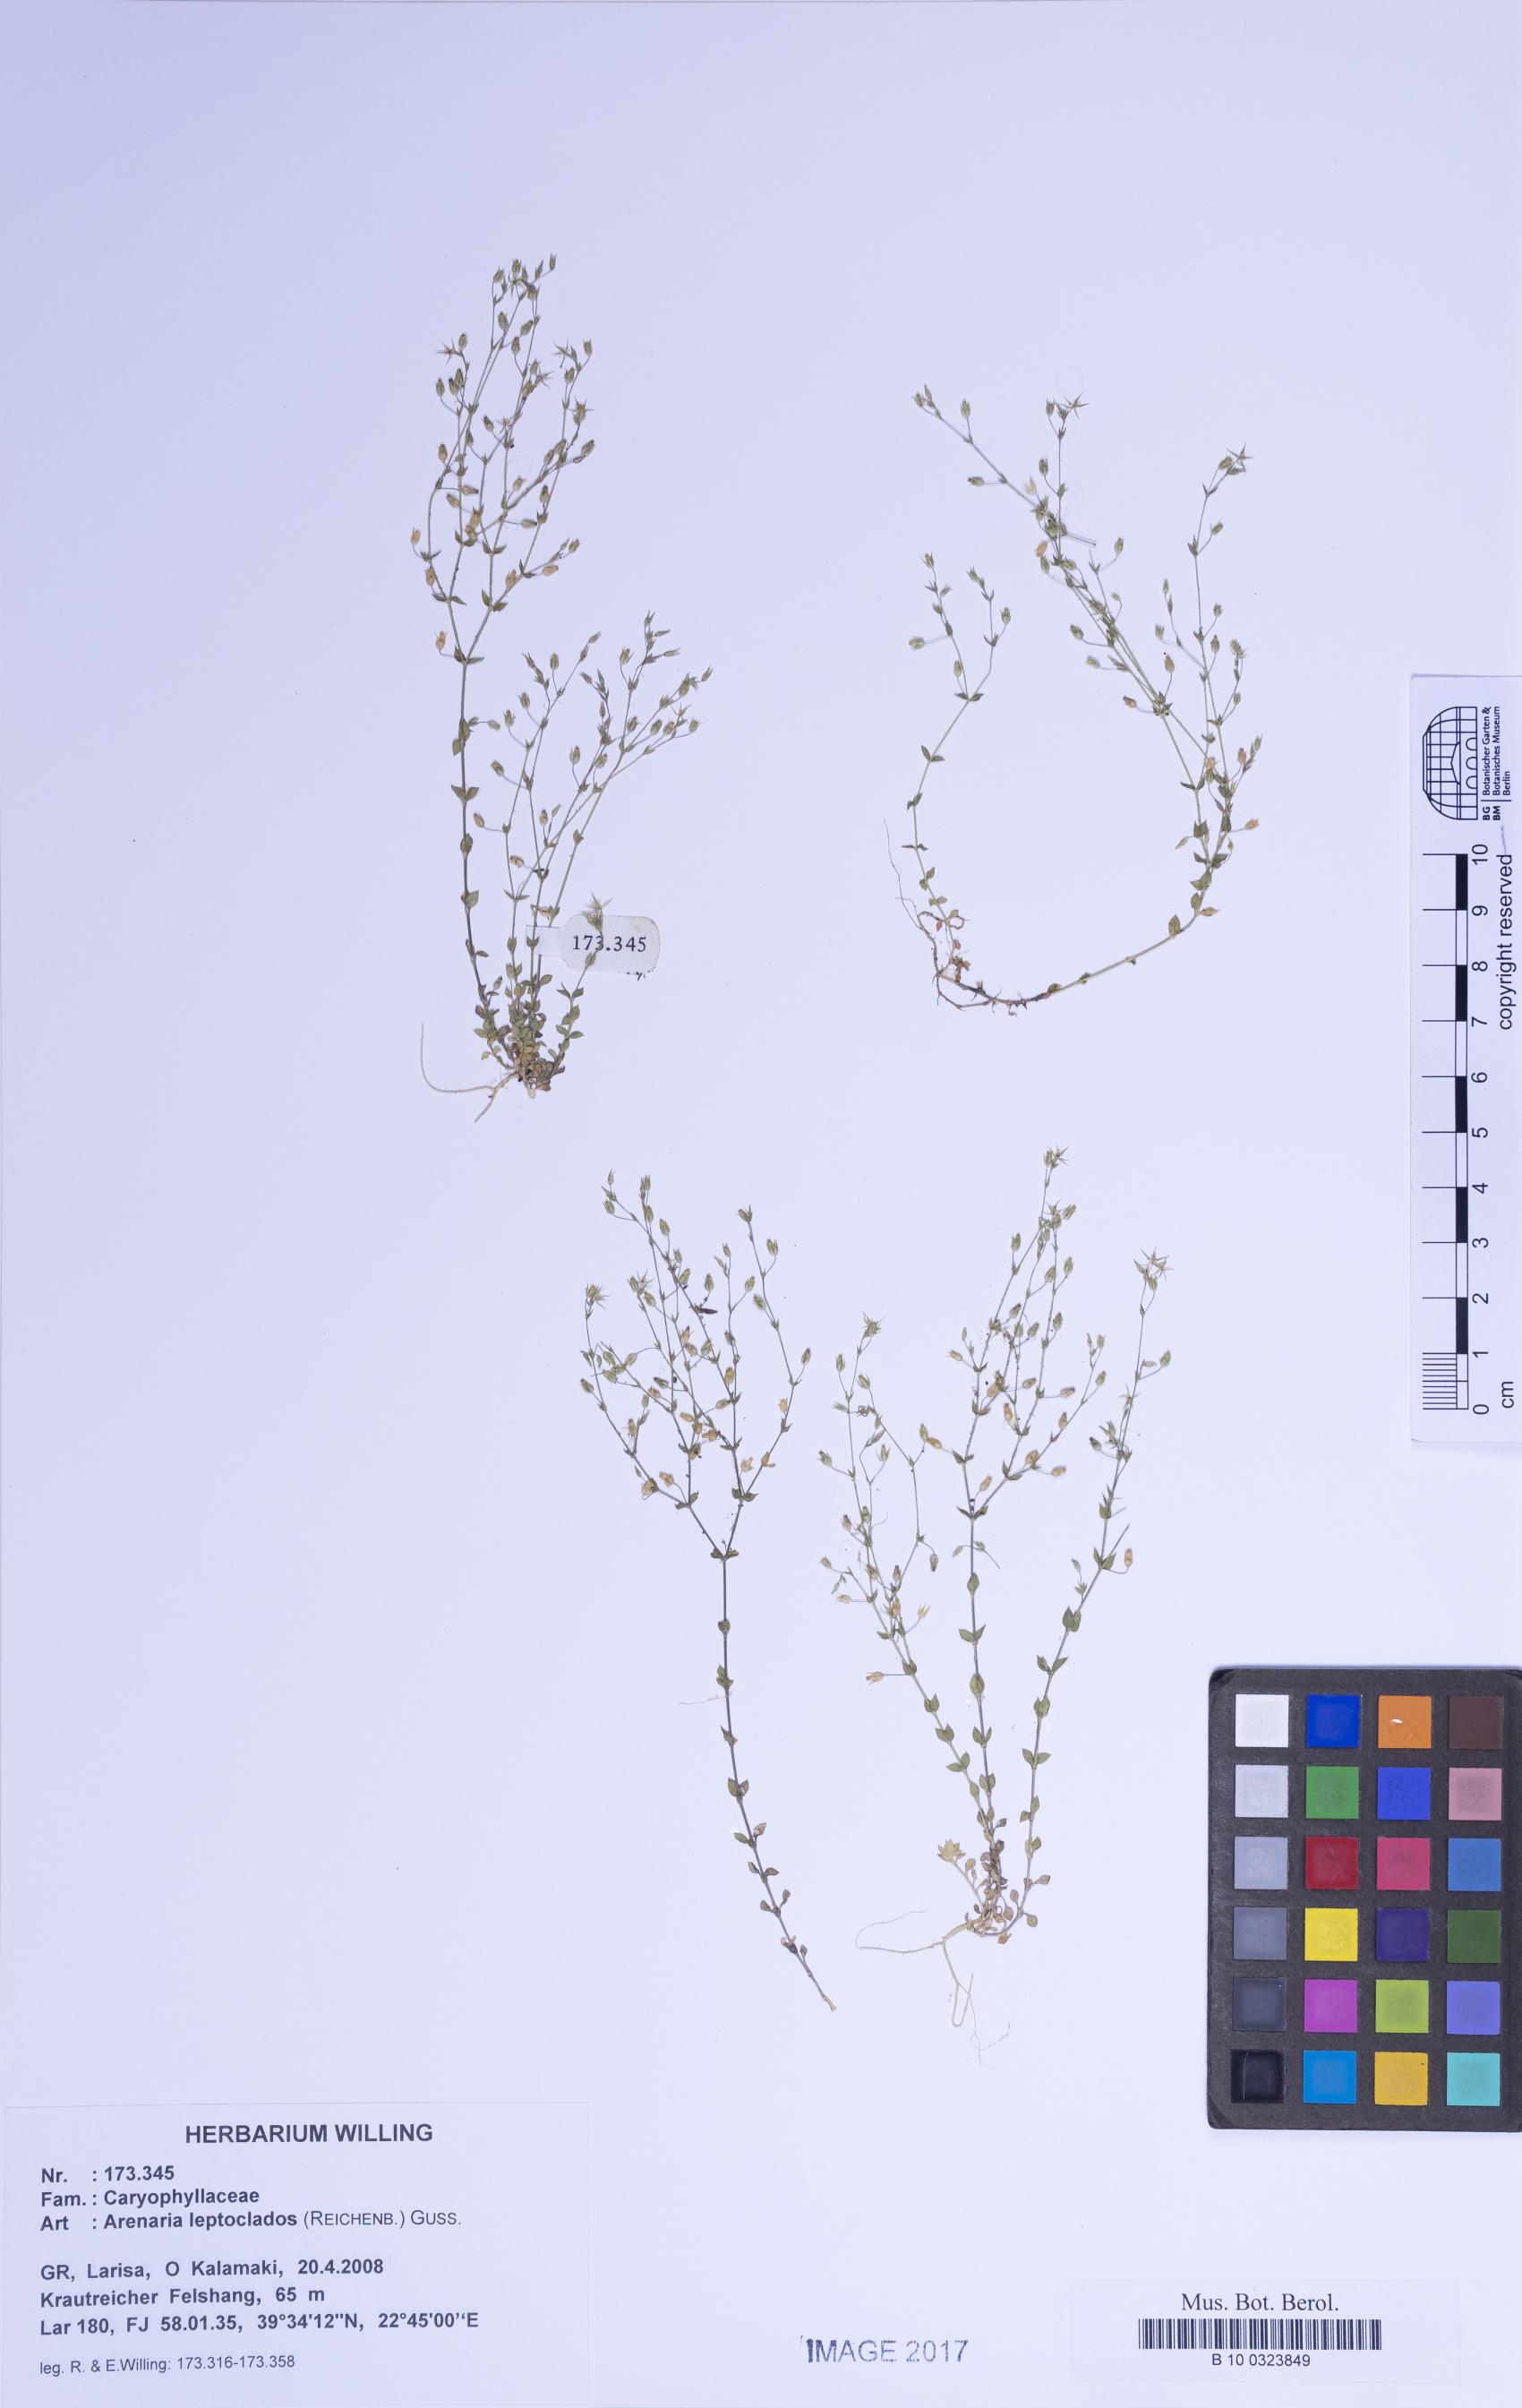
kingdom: Plantae
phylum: Tracheophyta
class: Magnoliopsida
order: Caryophyllales
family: Caryophyllaceae
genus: Arenaria
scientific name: Arenaria leptoclados
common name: Thyme-leaved sandwort
